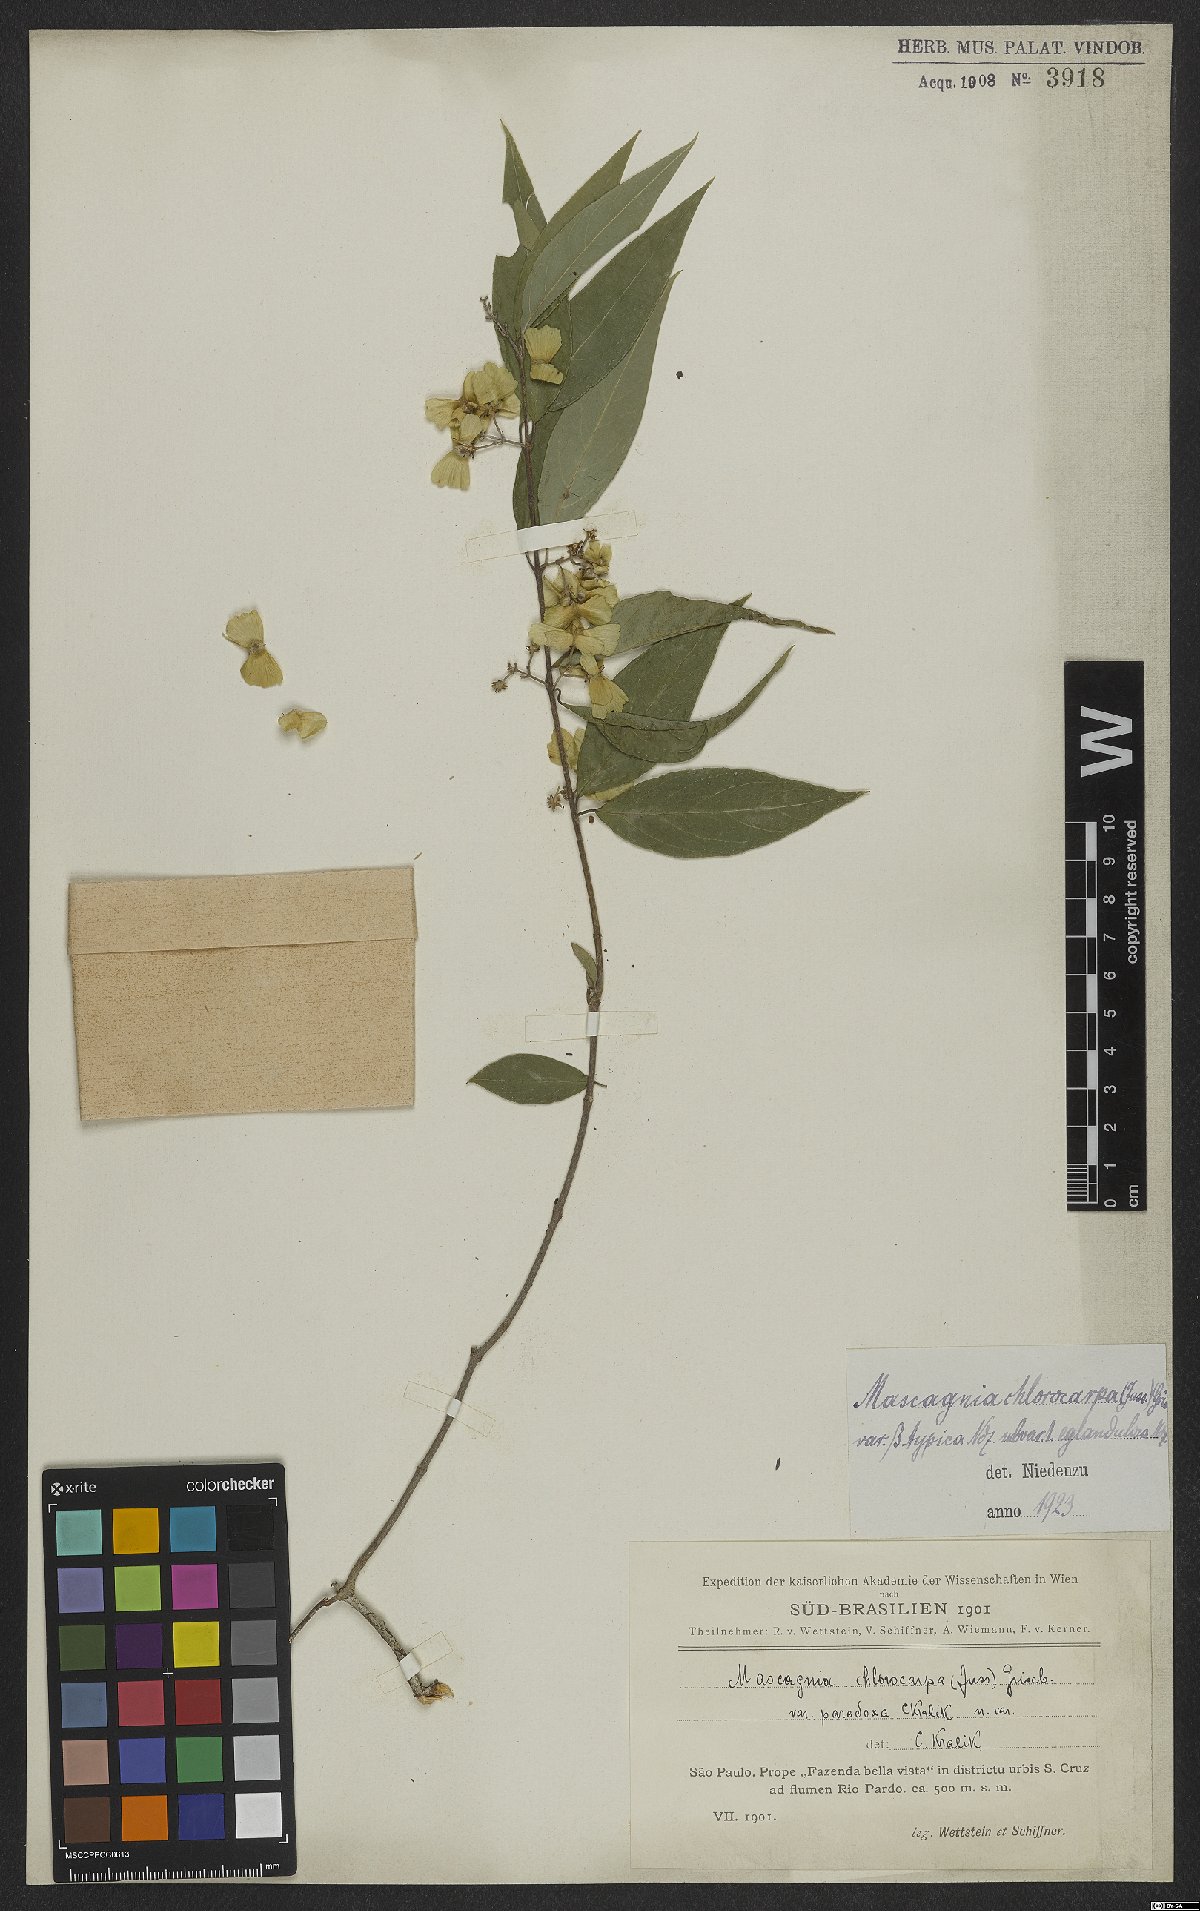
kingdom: Plantae
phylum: Tracheophyta
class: Magnoliopsida
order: Malpighiales
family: Malpighiaceae
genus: Carolus
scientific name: Carolus chlorocarpus
